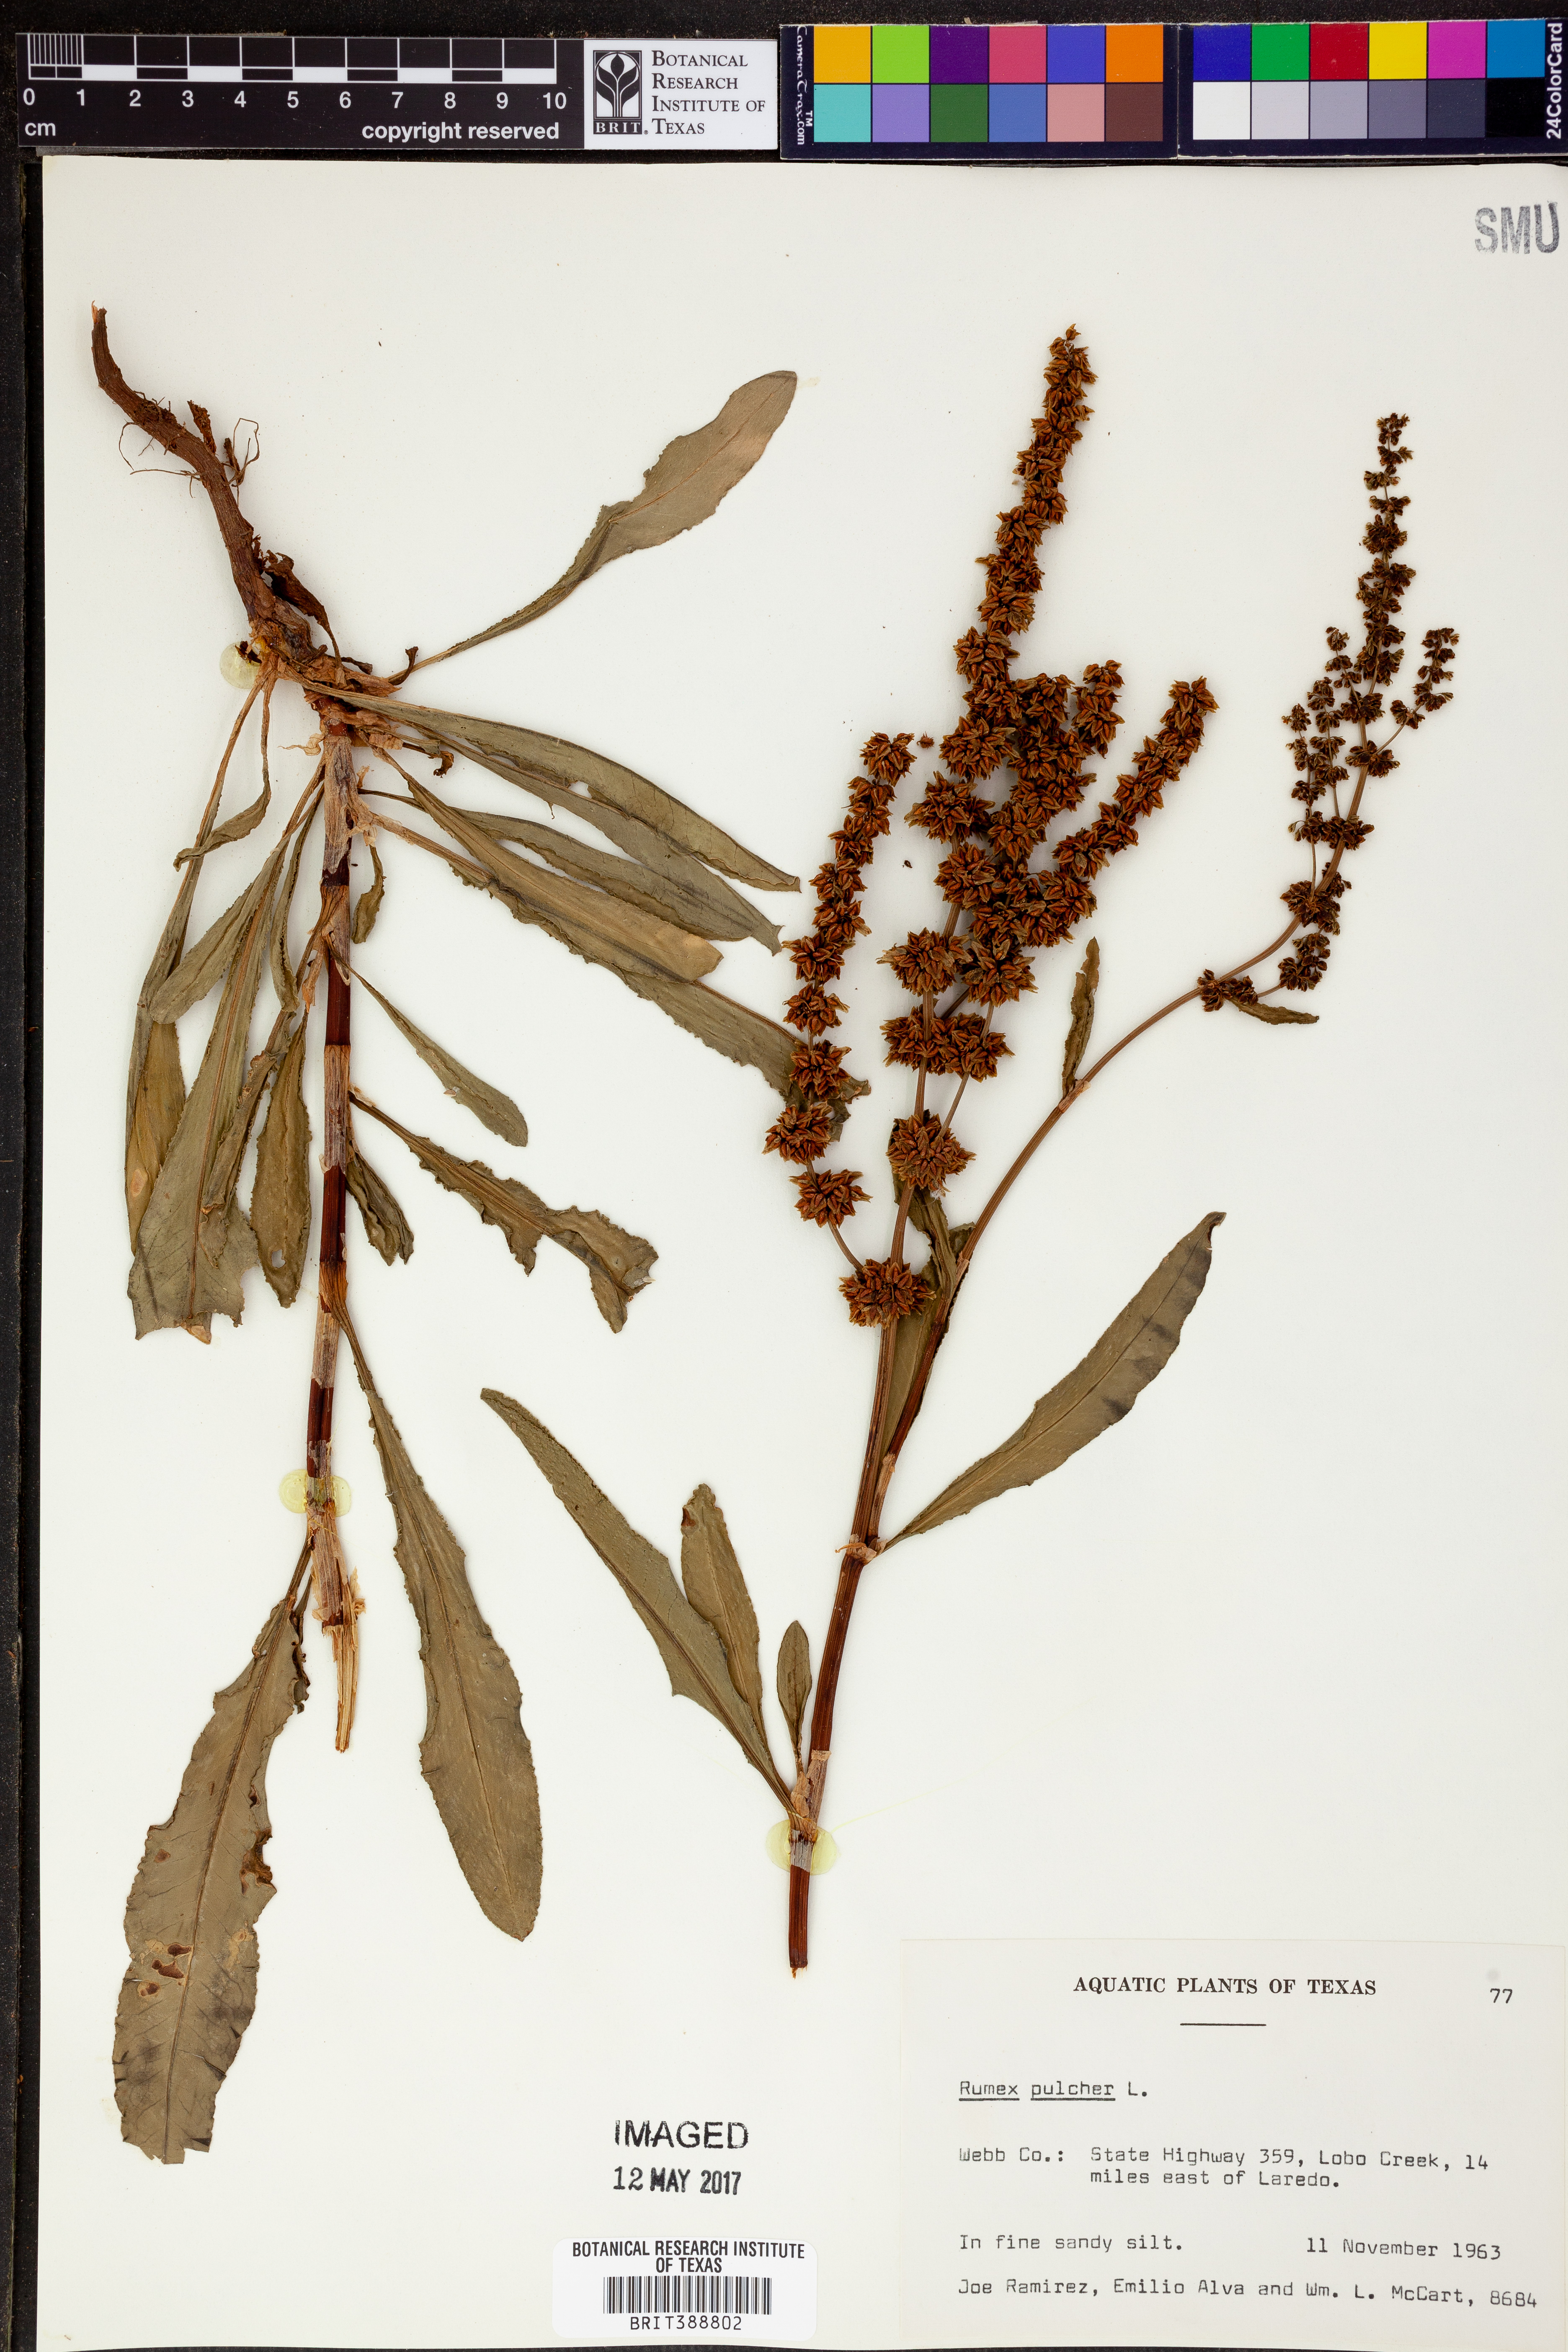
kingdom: Plantae
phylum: Tracheophyta
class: Magnoliopsida
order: Caryophyllales
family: Polygonaceae
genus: Rumex
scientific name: Rumex pulcher
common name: Fiddle dock
